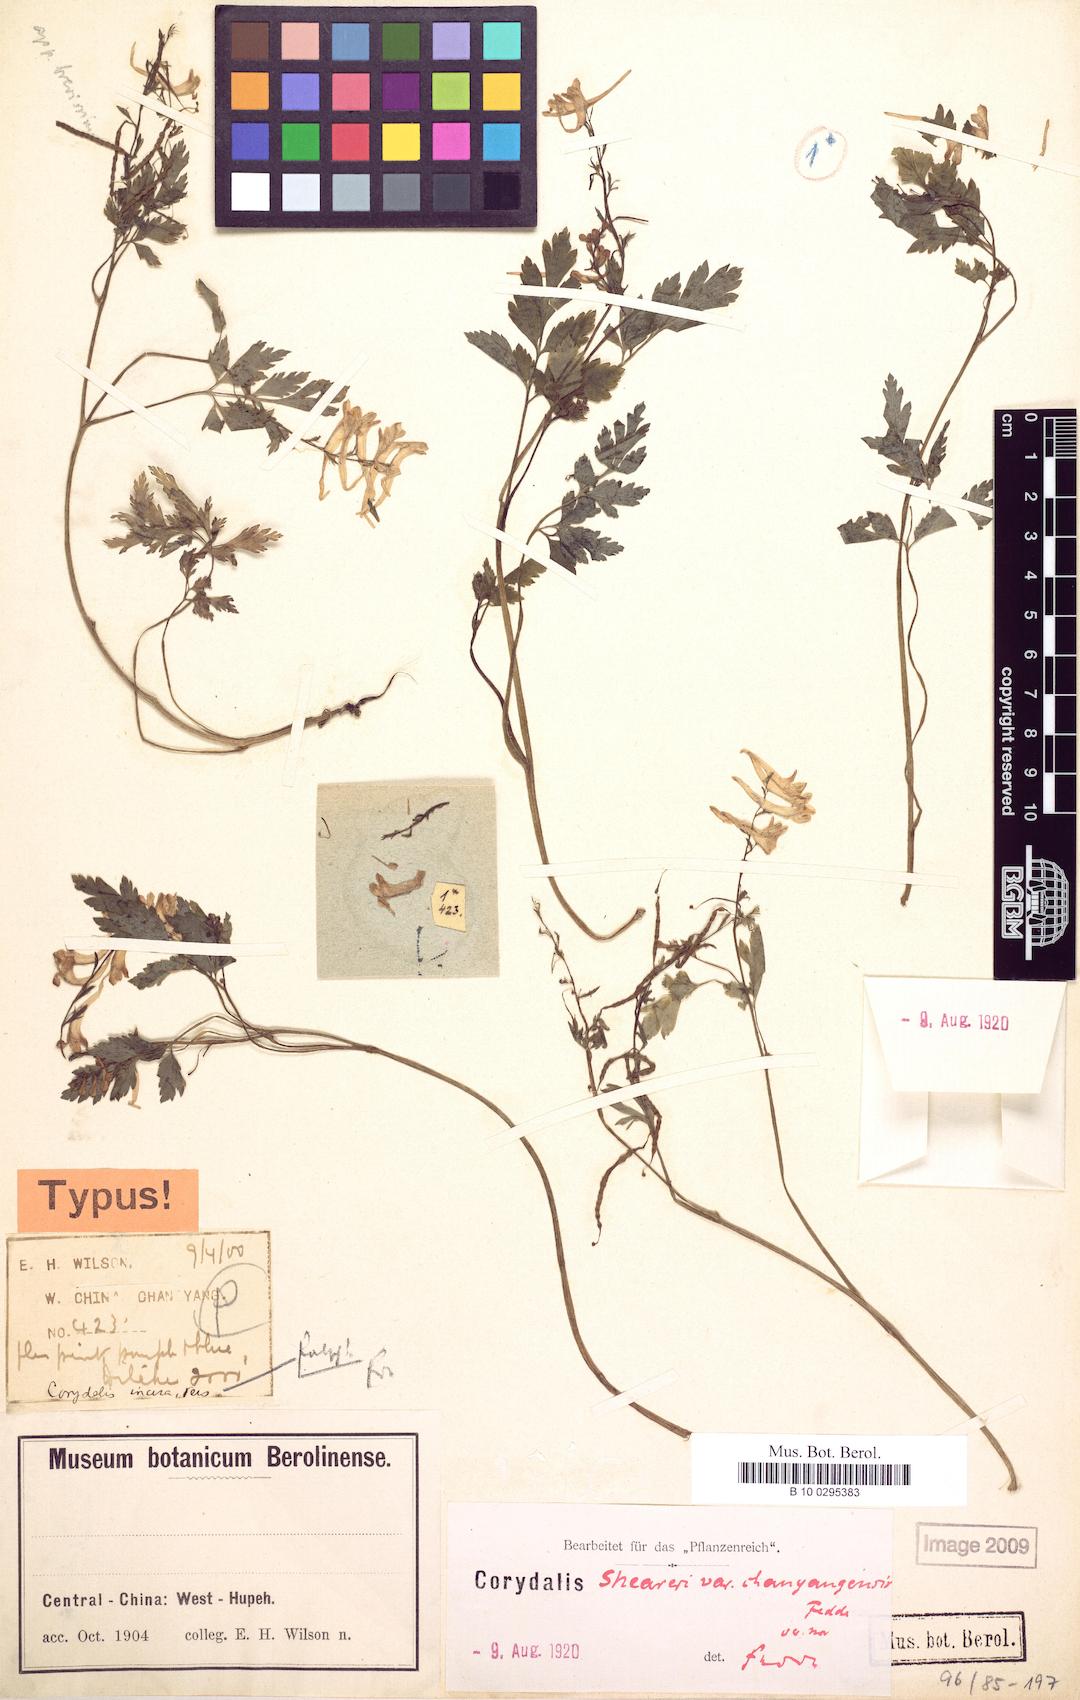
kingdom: Plantae
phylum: Tracheophyta
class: Magnoliopsida
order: Ranunculales
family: Papaveraceae
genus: Corydalis
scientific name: Corydalis sheareri
